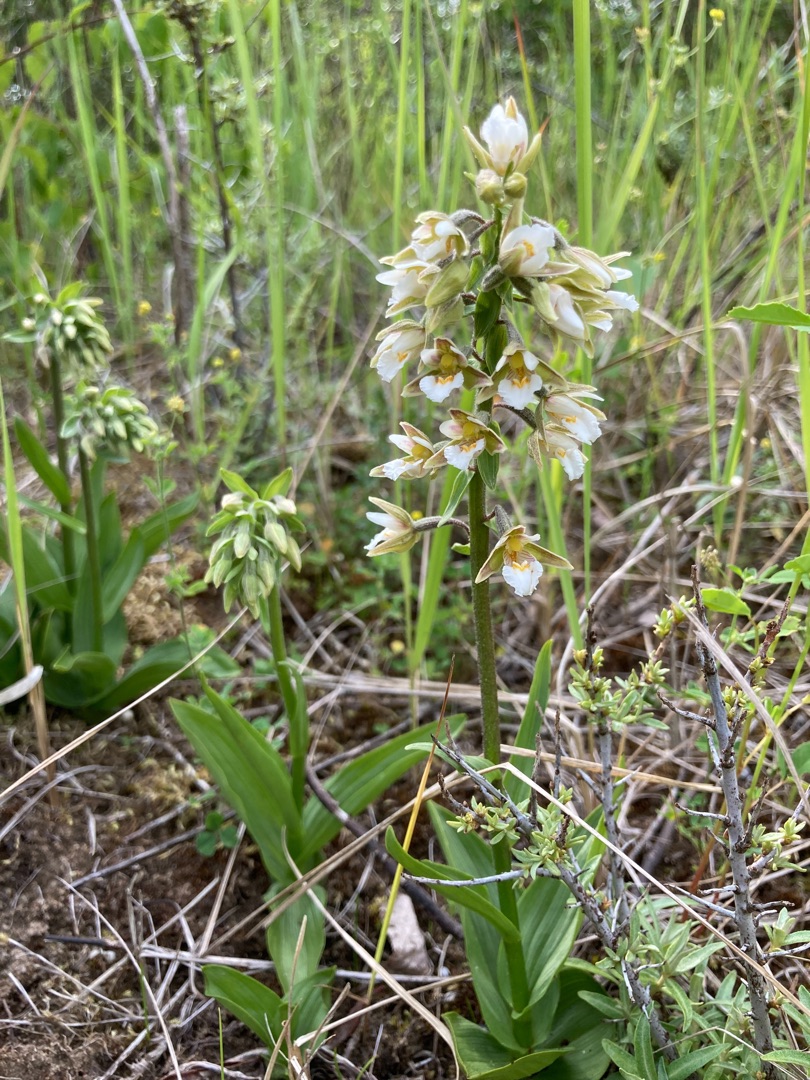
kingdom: Plantae
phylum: Tracheophyta
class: Liliopsida
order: Asparagales
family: Orchidaceae
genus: Epipactis
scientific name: Epipactis palustris
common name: Sump-hullæbe
